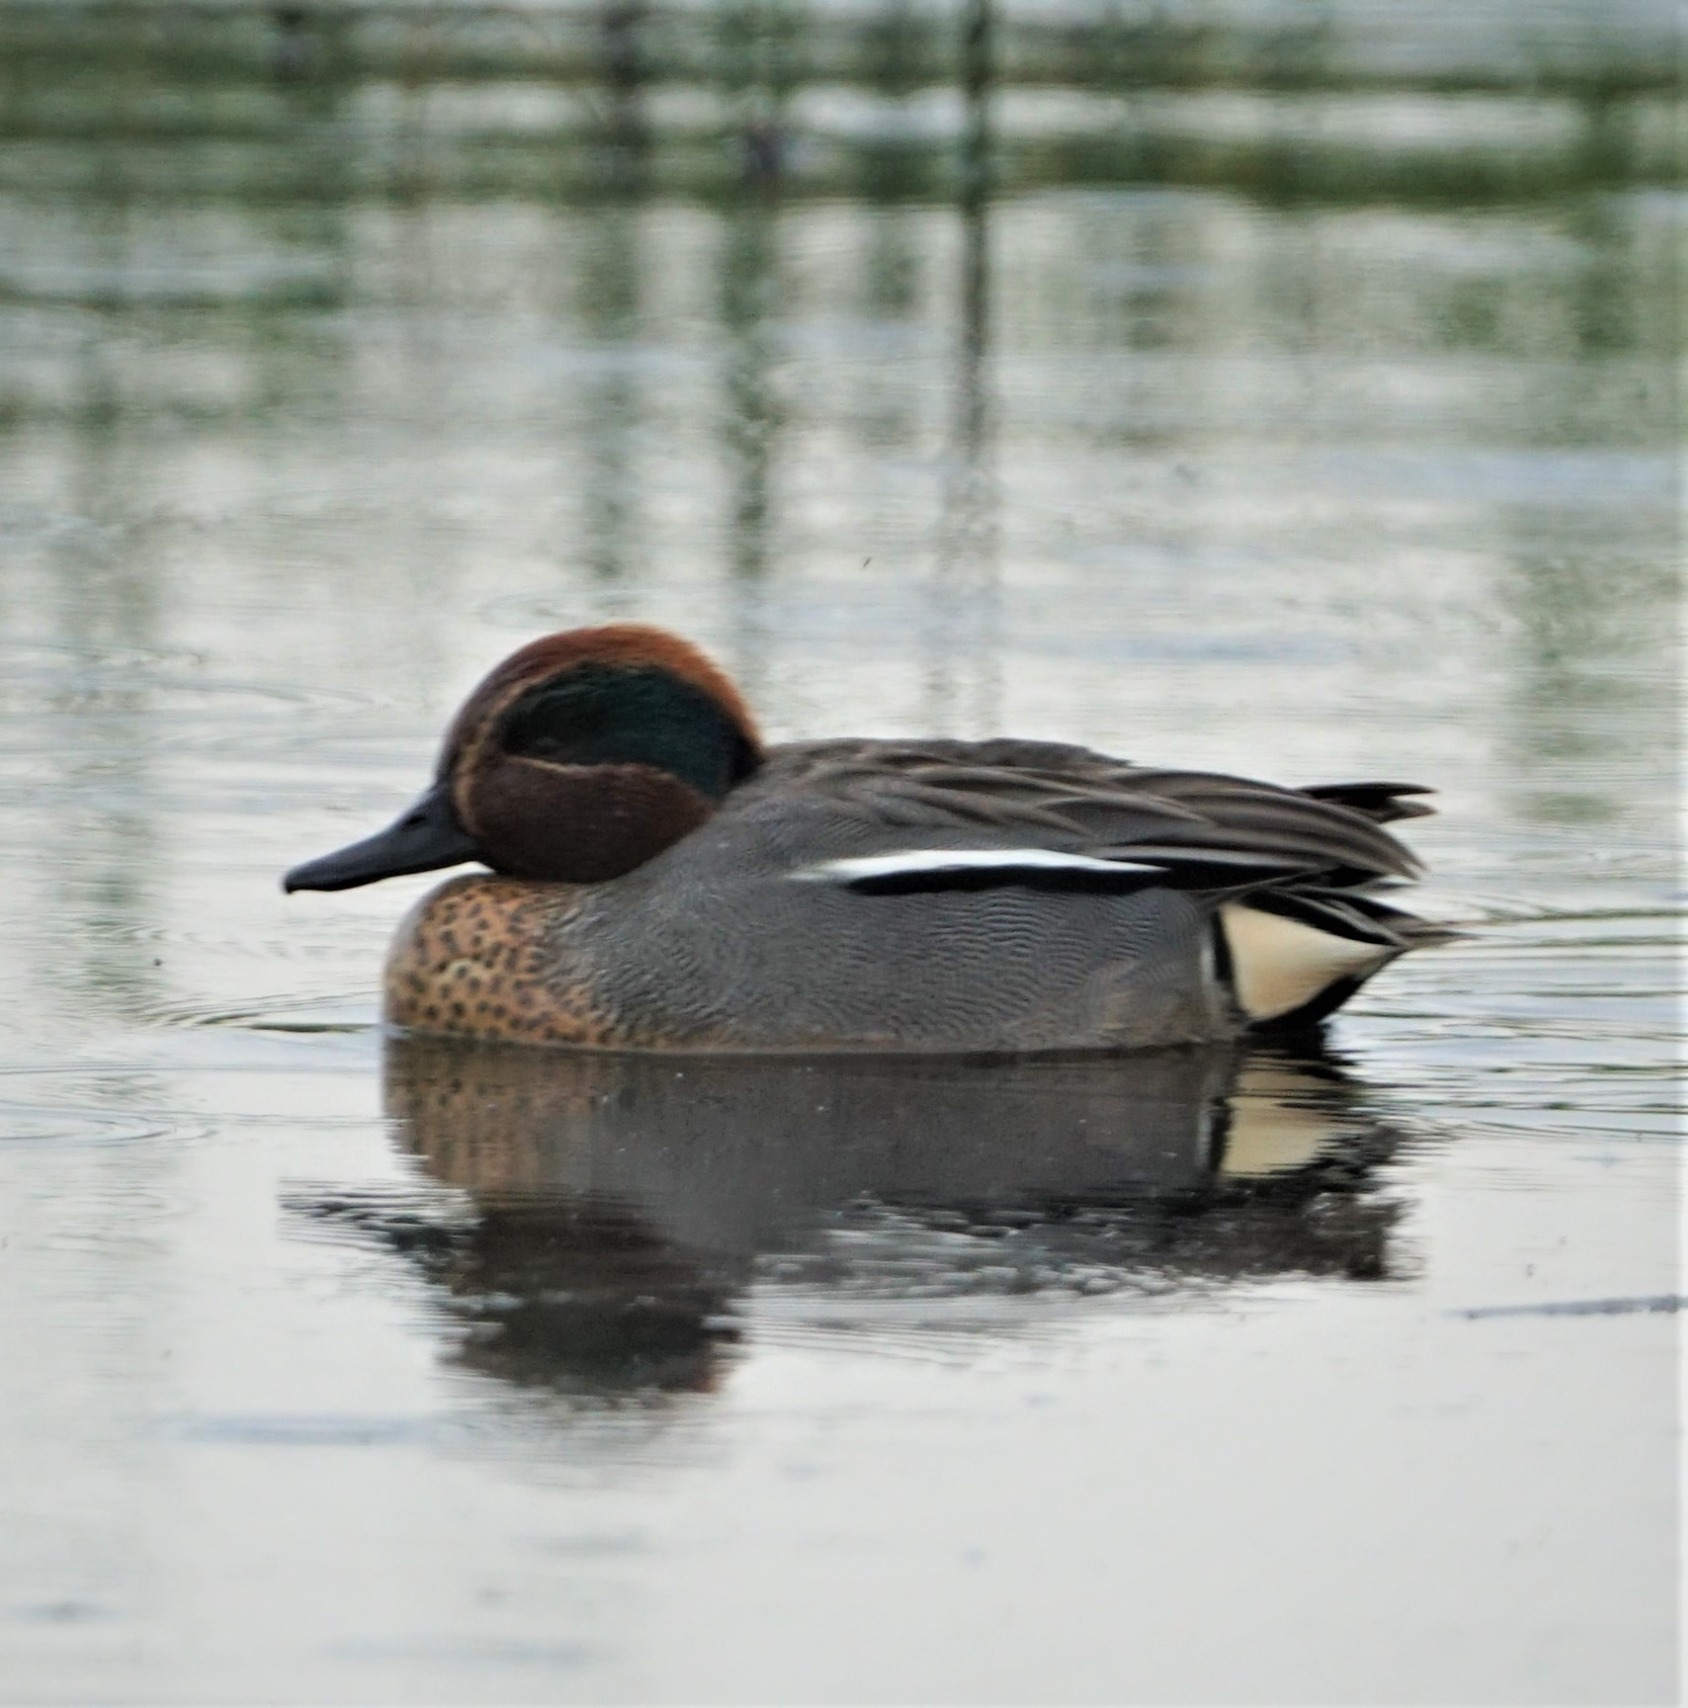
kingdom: Animalia
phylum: Chordata
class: Aves
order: Anseriformes
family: Anatidae
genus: Anas
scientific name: Anas crecca
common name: Krikand
